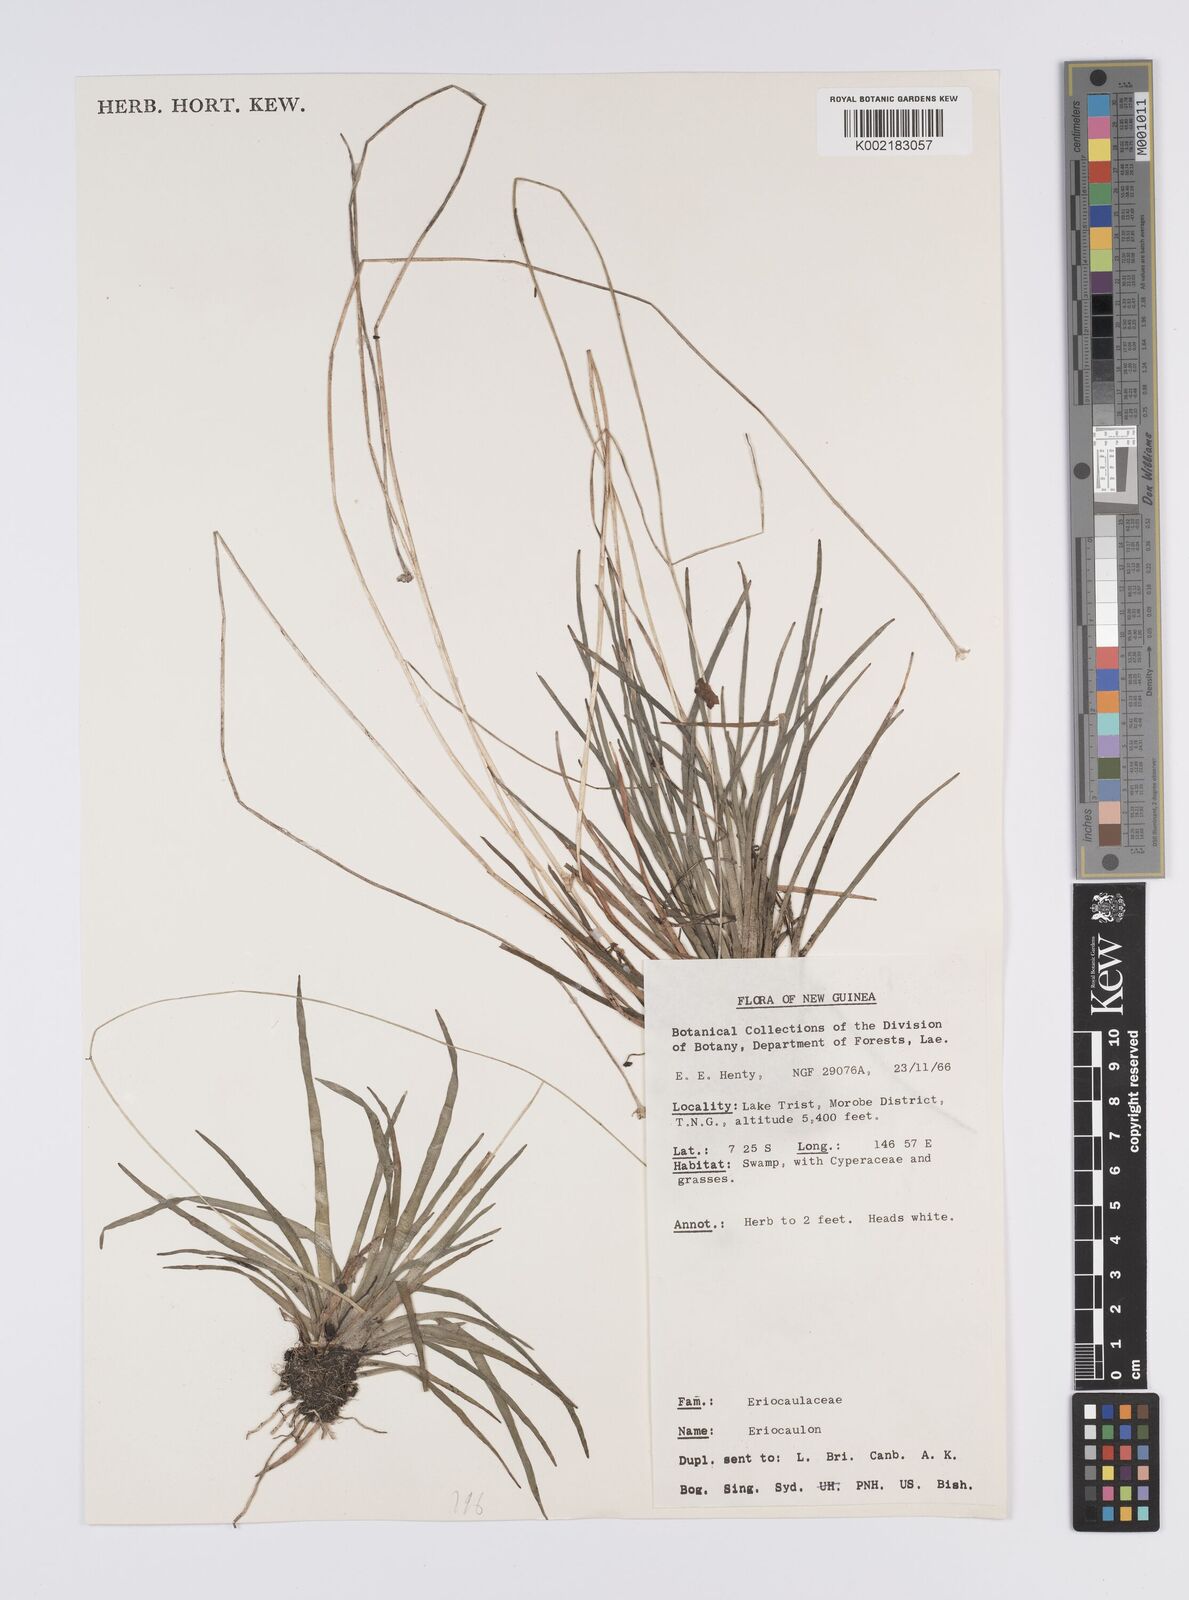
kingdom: Plantae
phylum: Tracheophyta
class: Liliopsida
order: Poales
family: Eriocaulaceae
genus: Eriocaulon
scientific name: Eriocaulon
